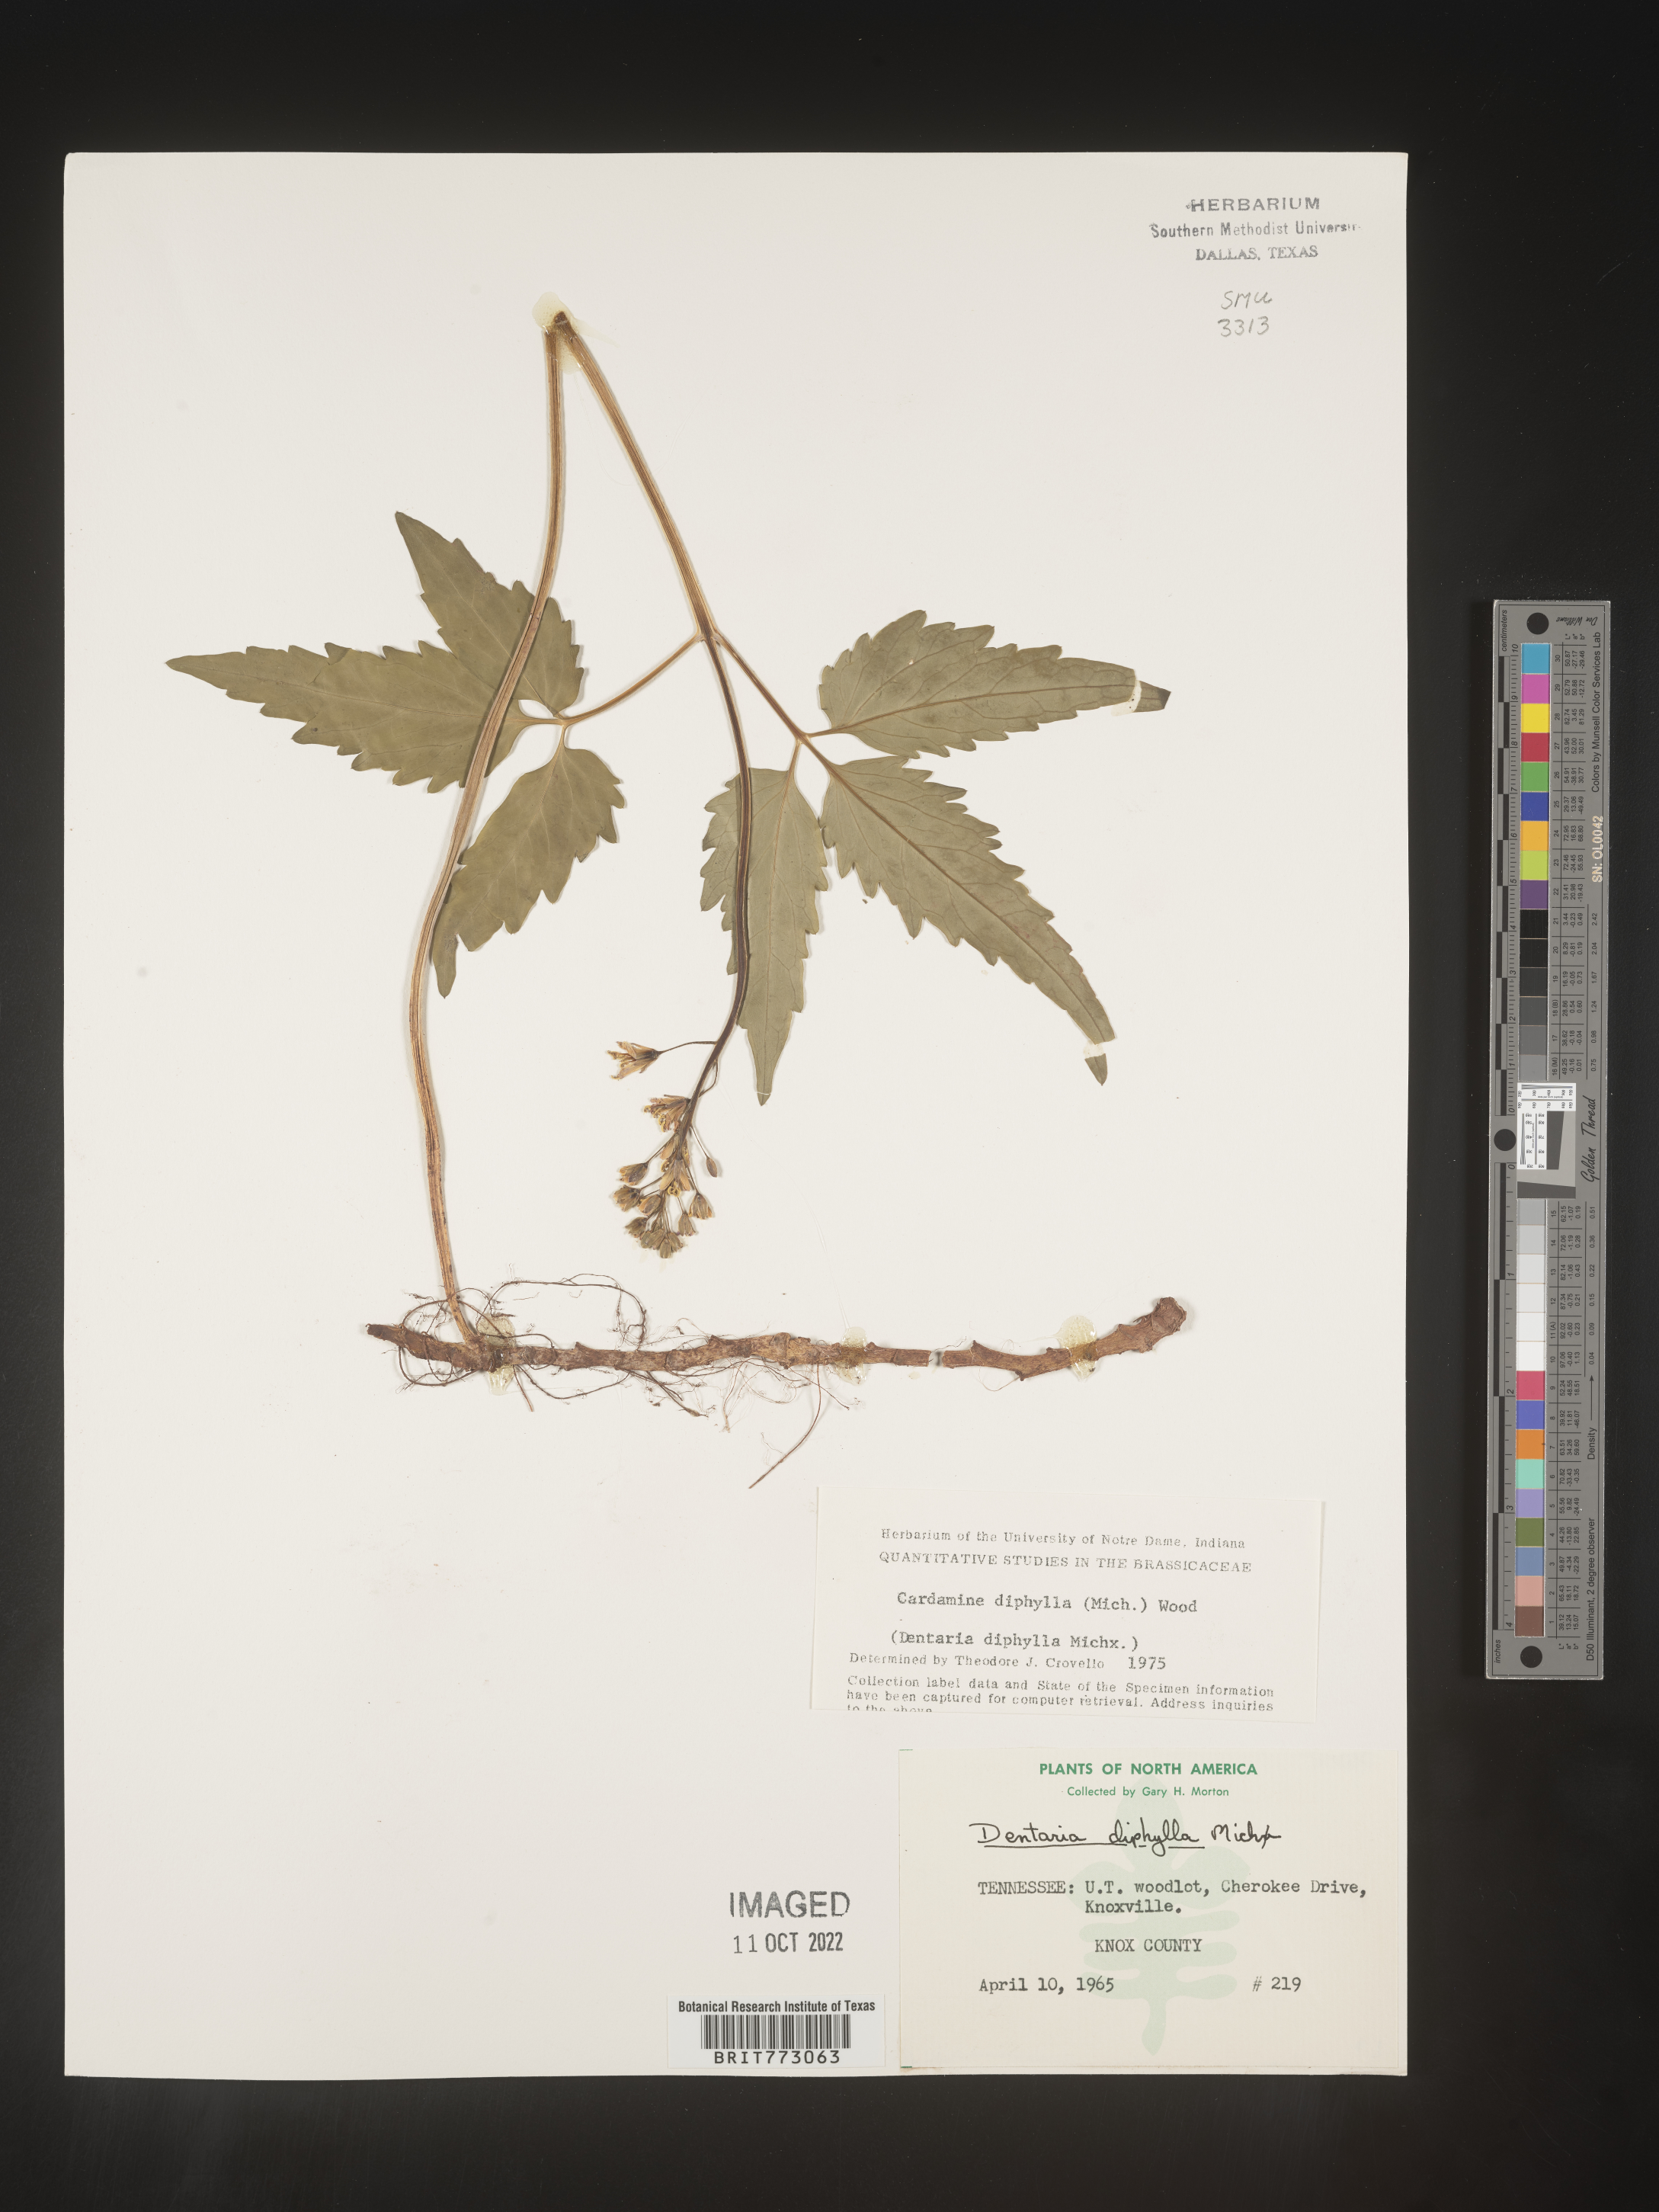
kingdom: Plantae
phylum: Tracheophyta
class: Magnoliopsida
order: Brassicales
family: Brassicaceae
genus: Cardamine
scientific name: Cardamine diphylla
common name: Broad-leaved toothwort
